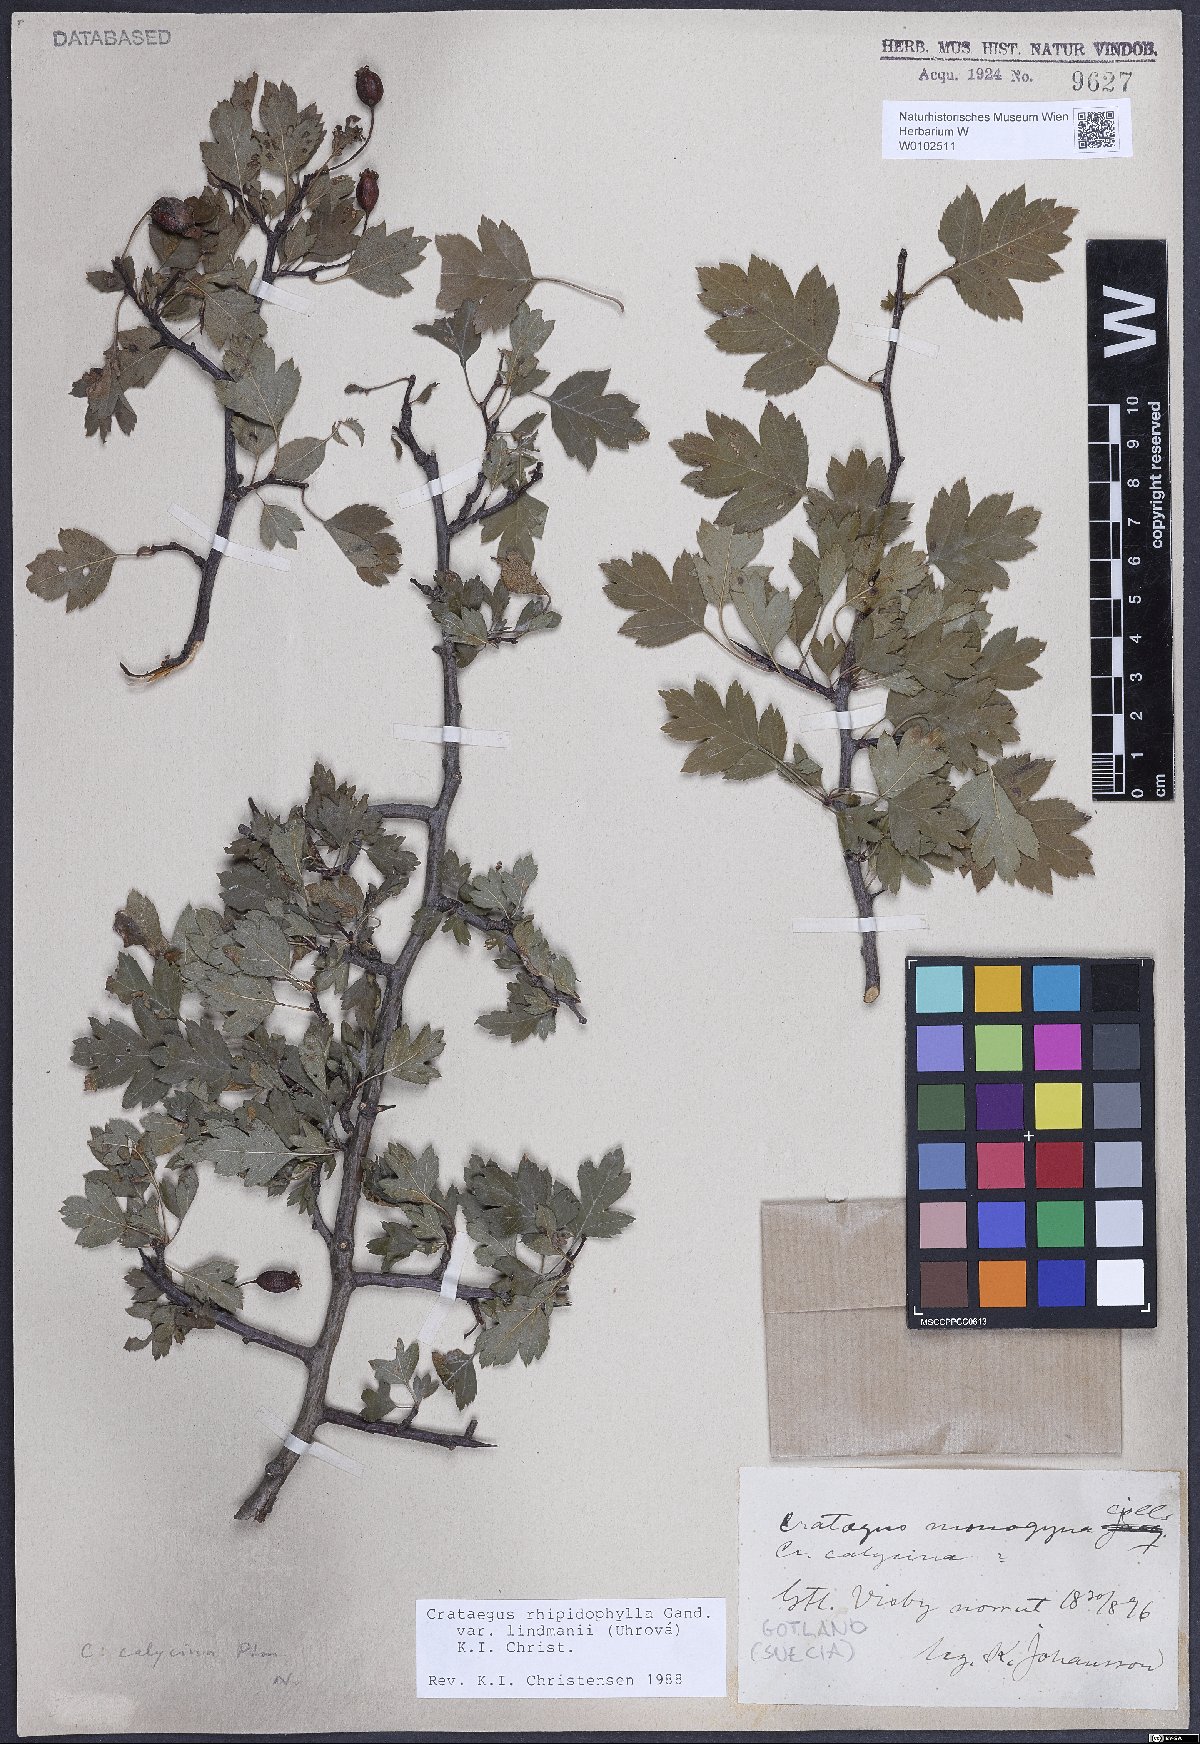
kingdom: Plantae
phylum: Tracheophyta
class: Magnoliopsida
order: Rosales
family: Rosaceae
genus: Crataegus
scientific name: Crataegus lindmanii
